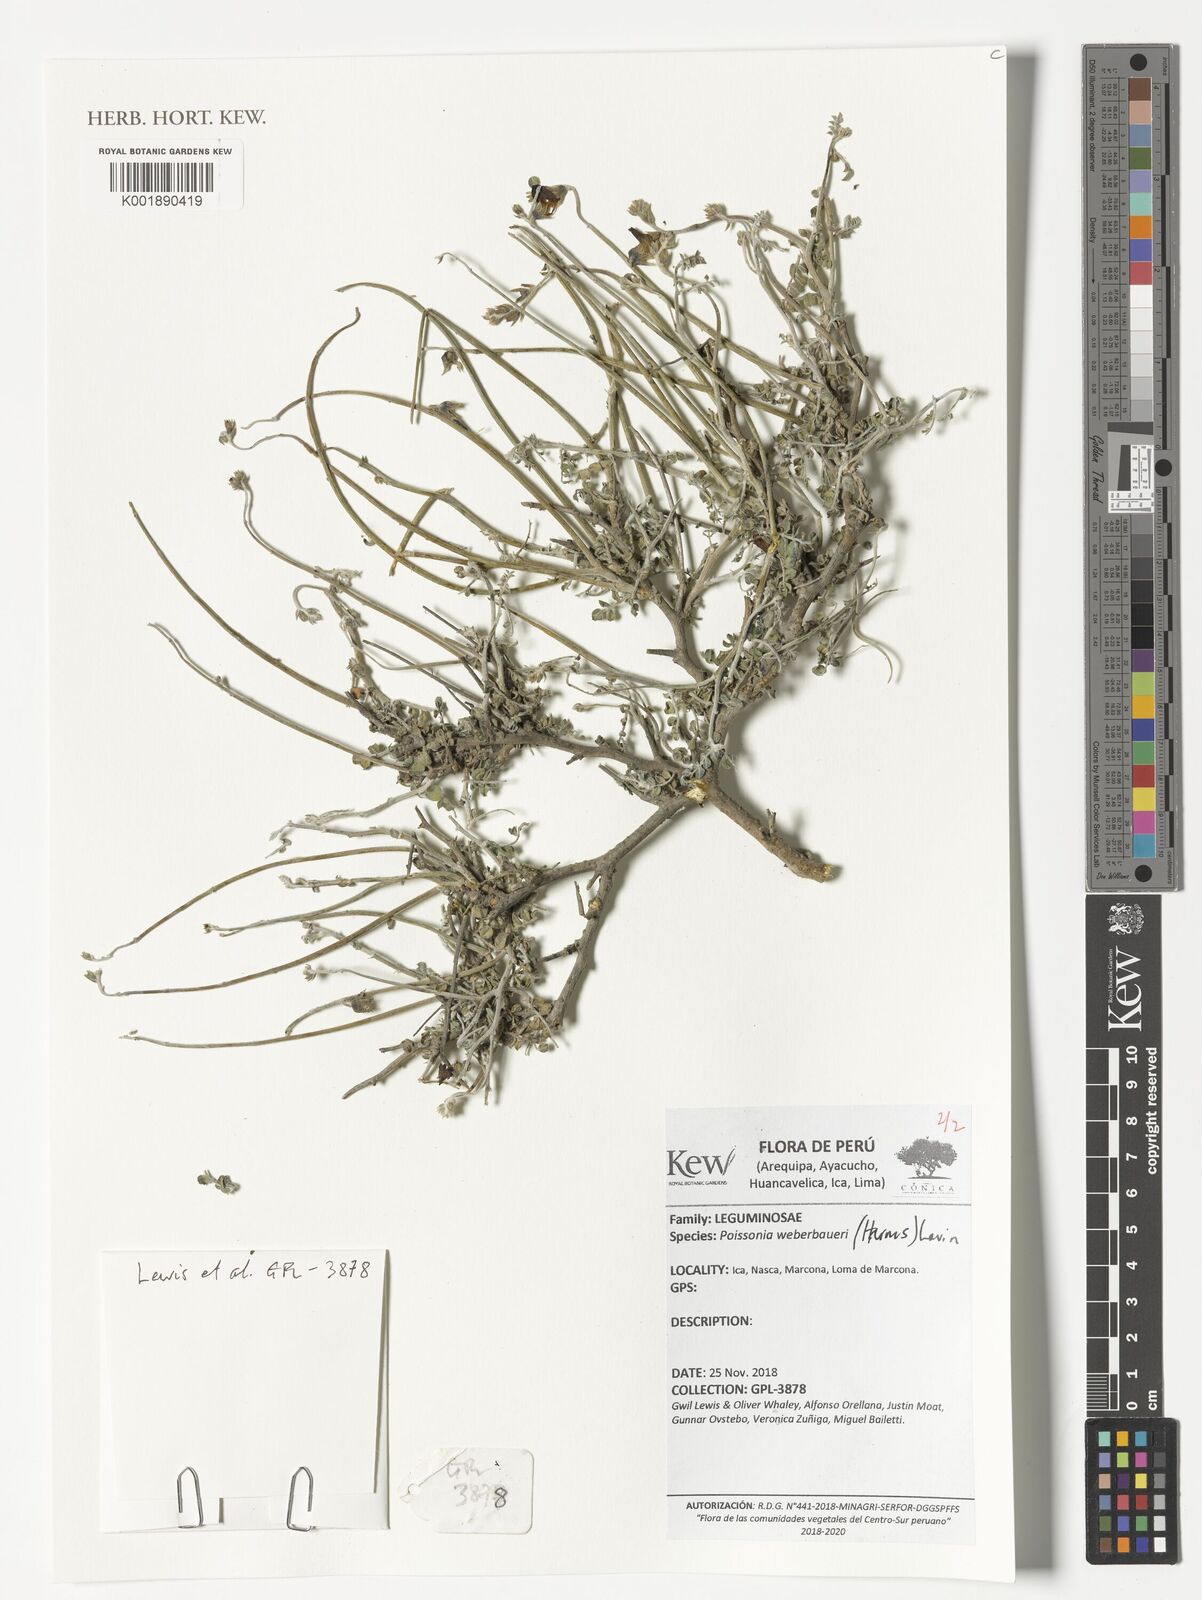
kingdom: Plantae
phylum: Tracheophyta
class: Magnoliopsida
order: Fabales
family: Fabaceae
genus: Poissonia
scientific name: Poissonia weberbaueri
